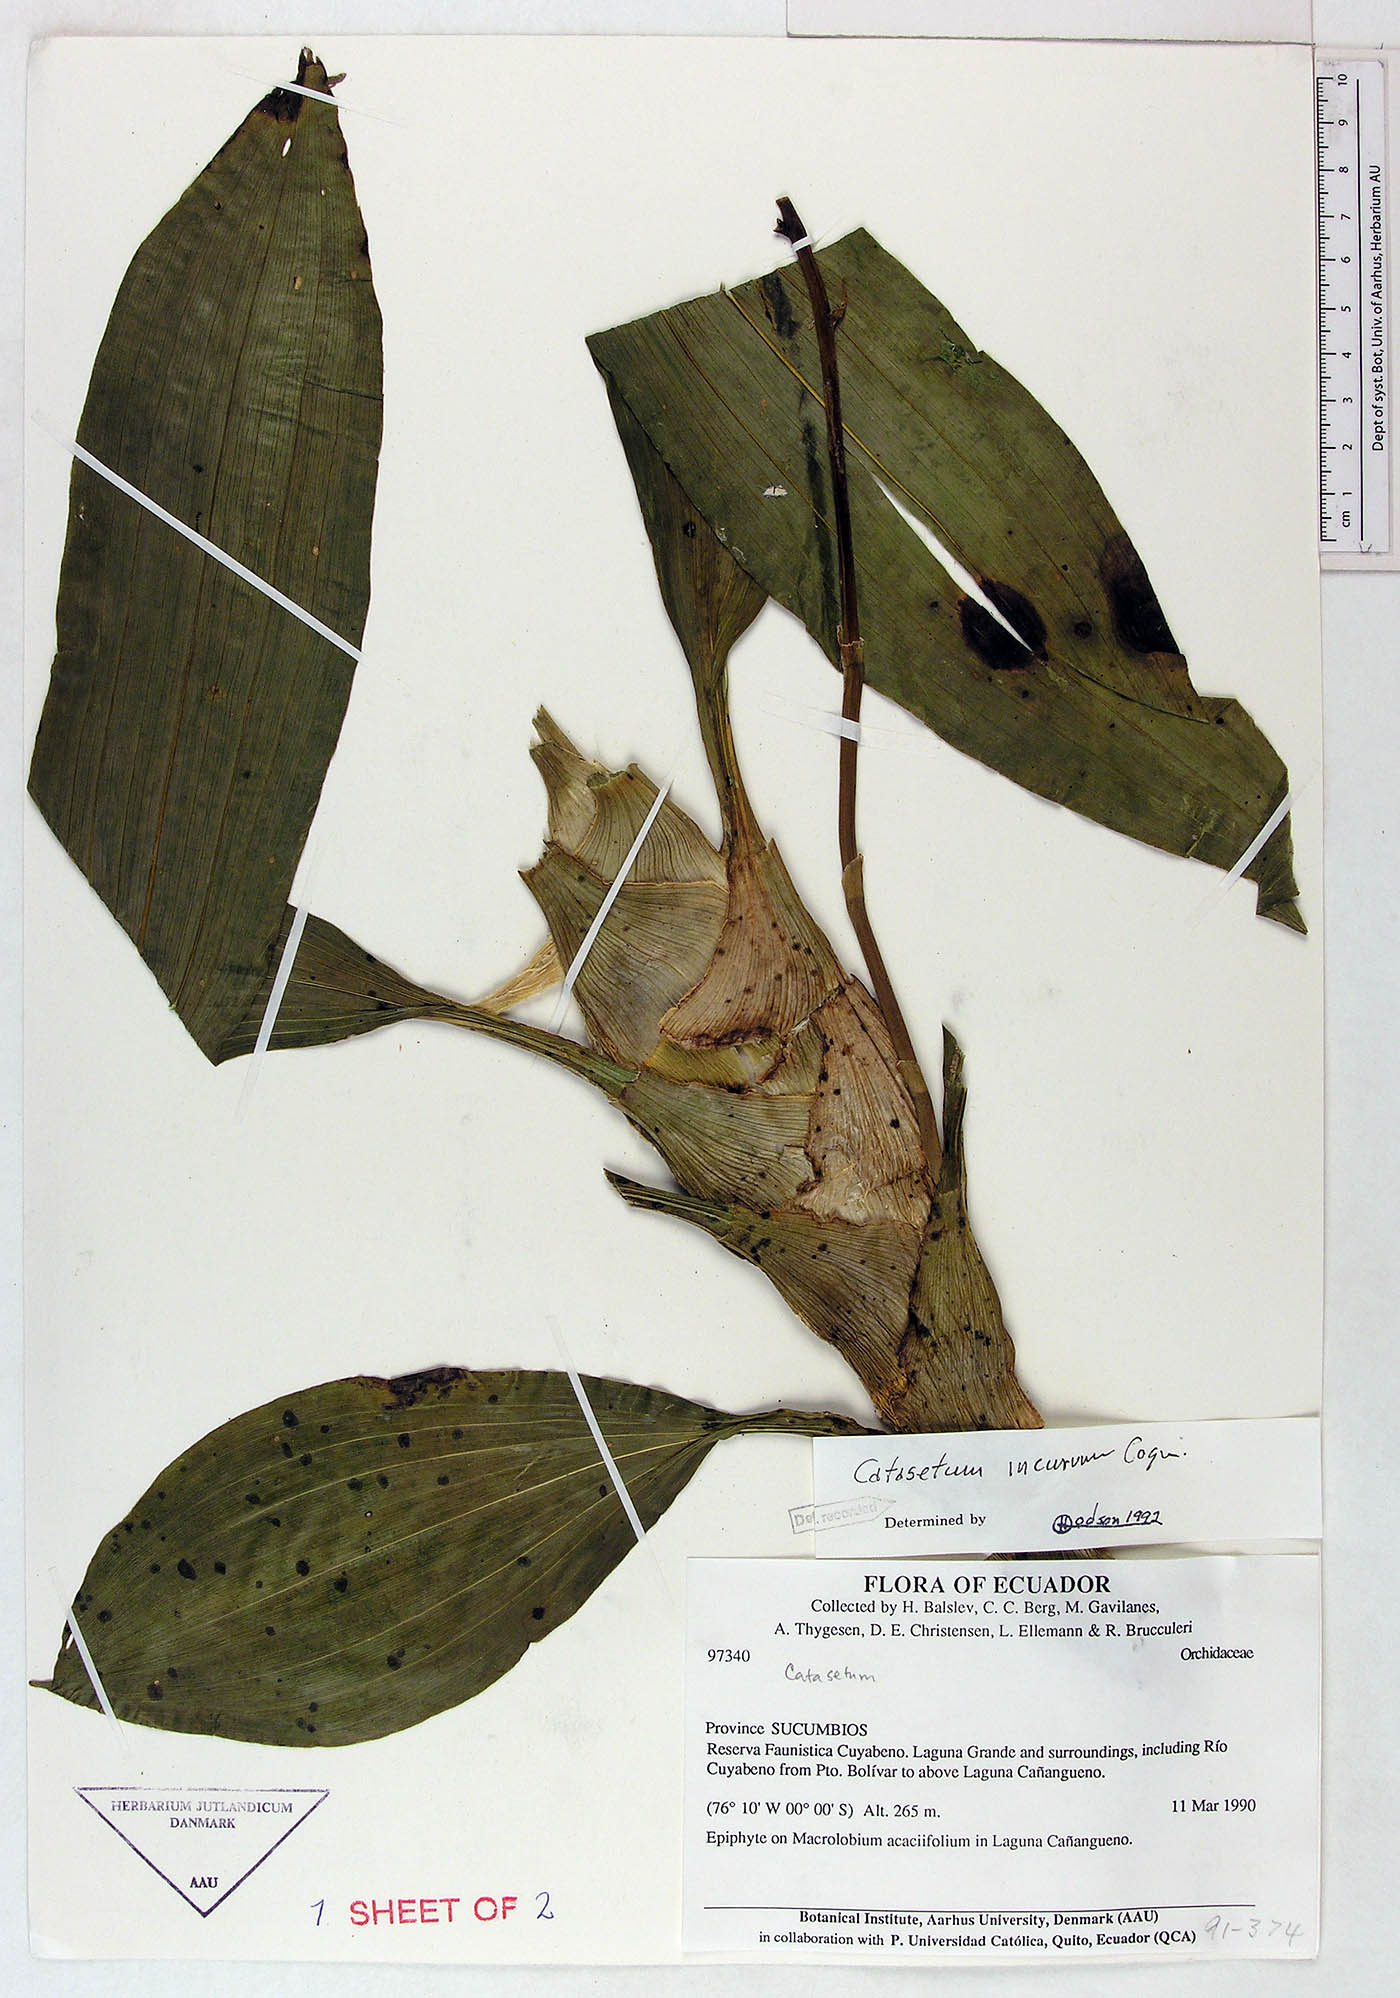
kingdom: Plantae
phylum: Tracheophyta
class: Liliopsida
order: Asparagales
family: Orchidaceae
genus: Catasetum
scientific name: Catasetum incurvum
